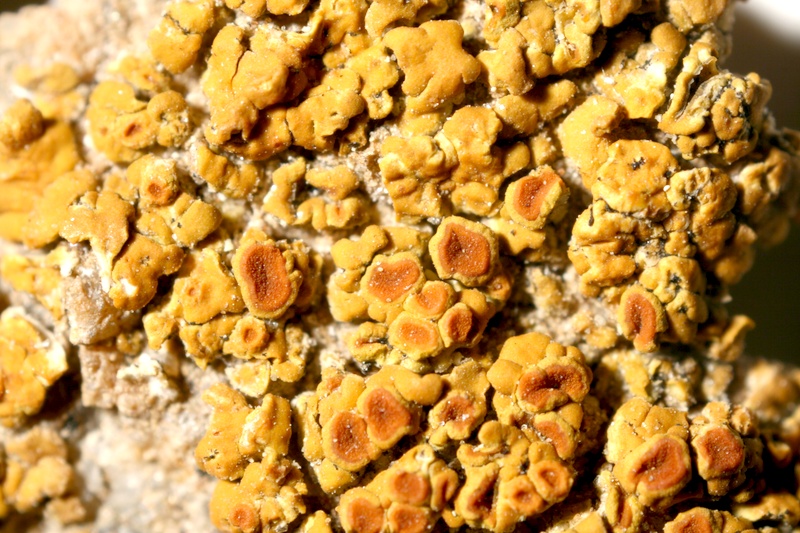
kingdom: Fungi
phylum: Ascomycota
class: Lecanoromycetes
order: Teloschistales
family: Teloschistaceae
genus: Caloplaca
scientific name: Caloplaca
